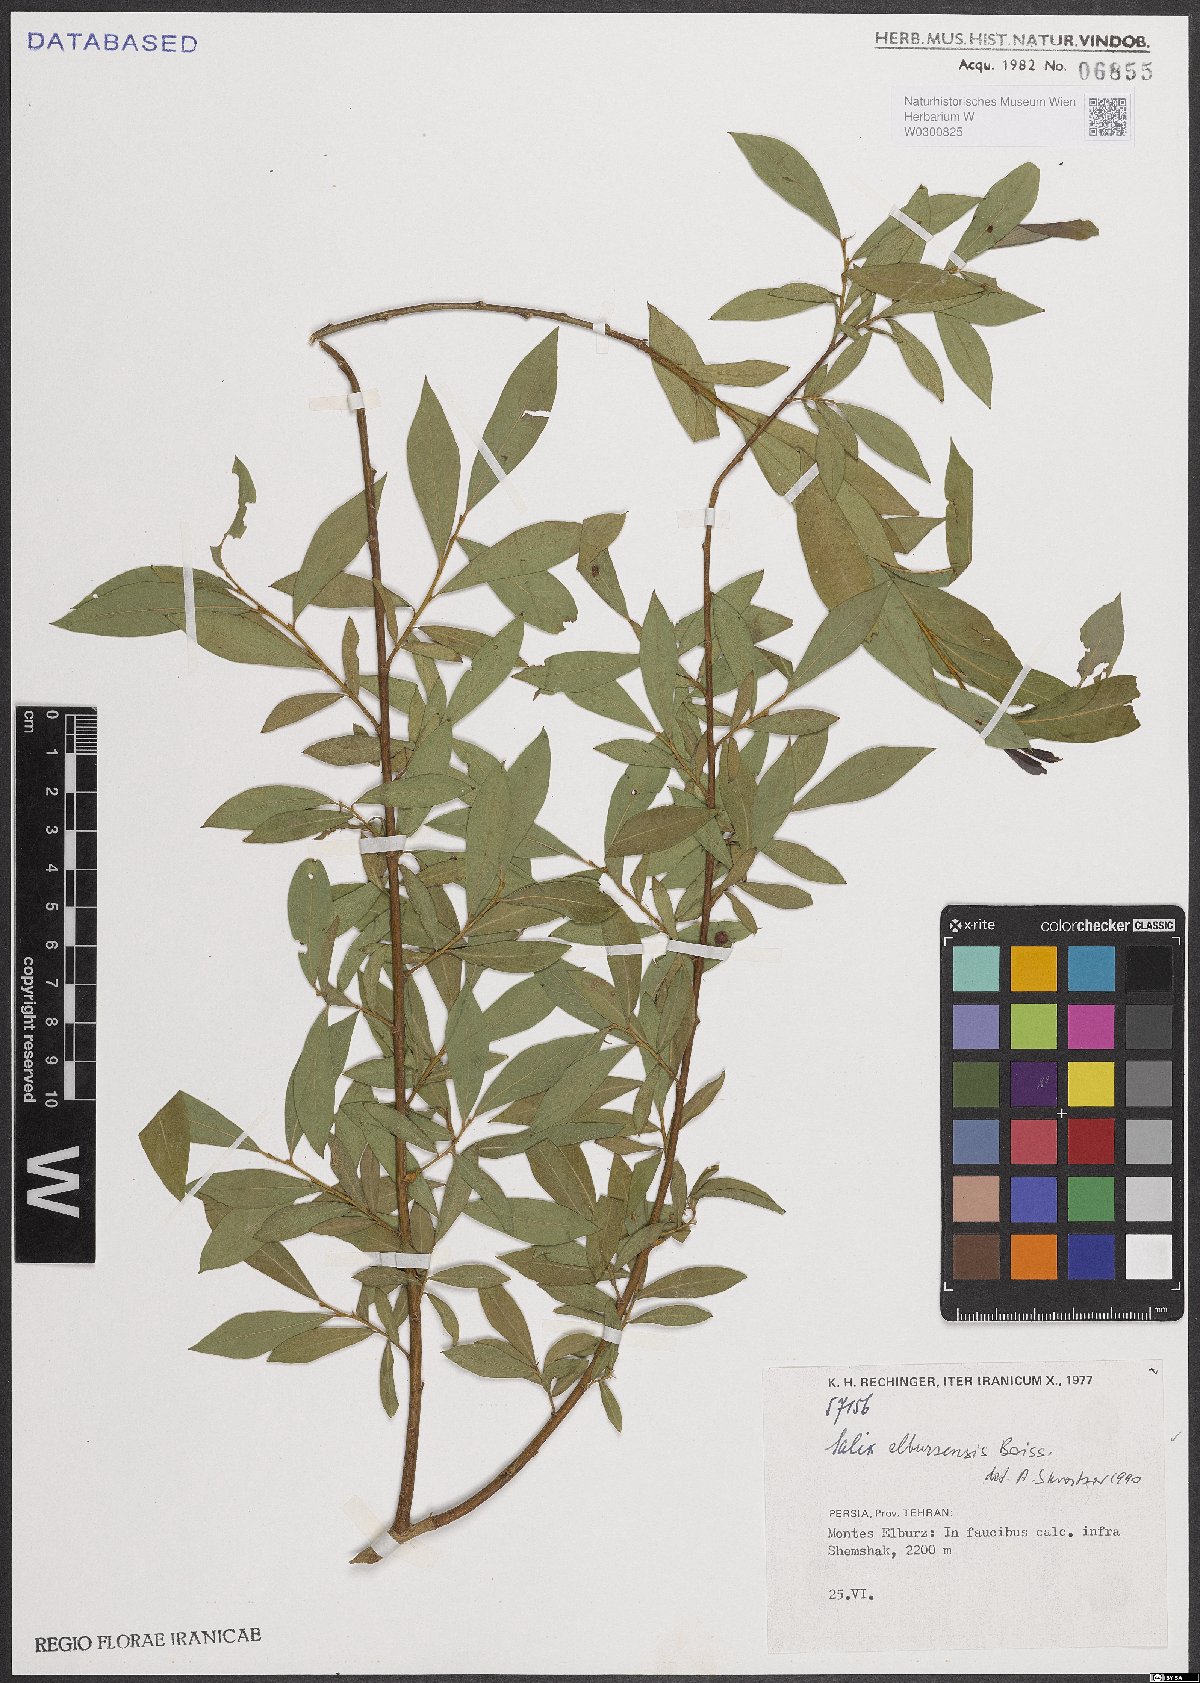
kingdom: Plantae
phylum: Tracheophyta
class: Magnoliopsida
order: Malpighiales
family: Salicaceae
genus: Salix
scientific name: Salix elbursensis
